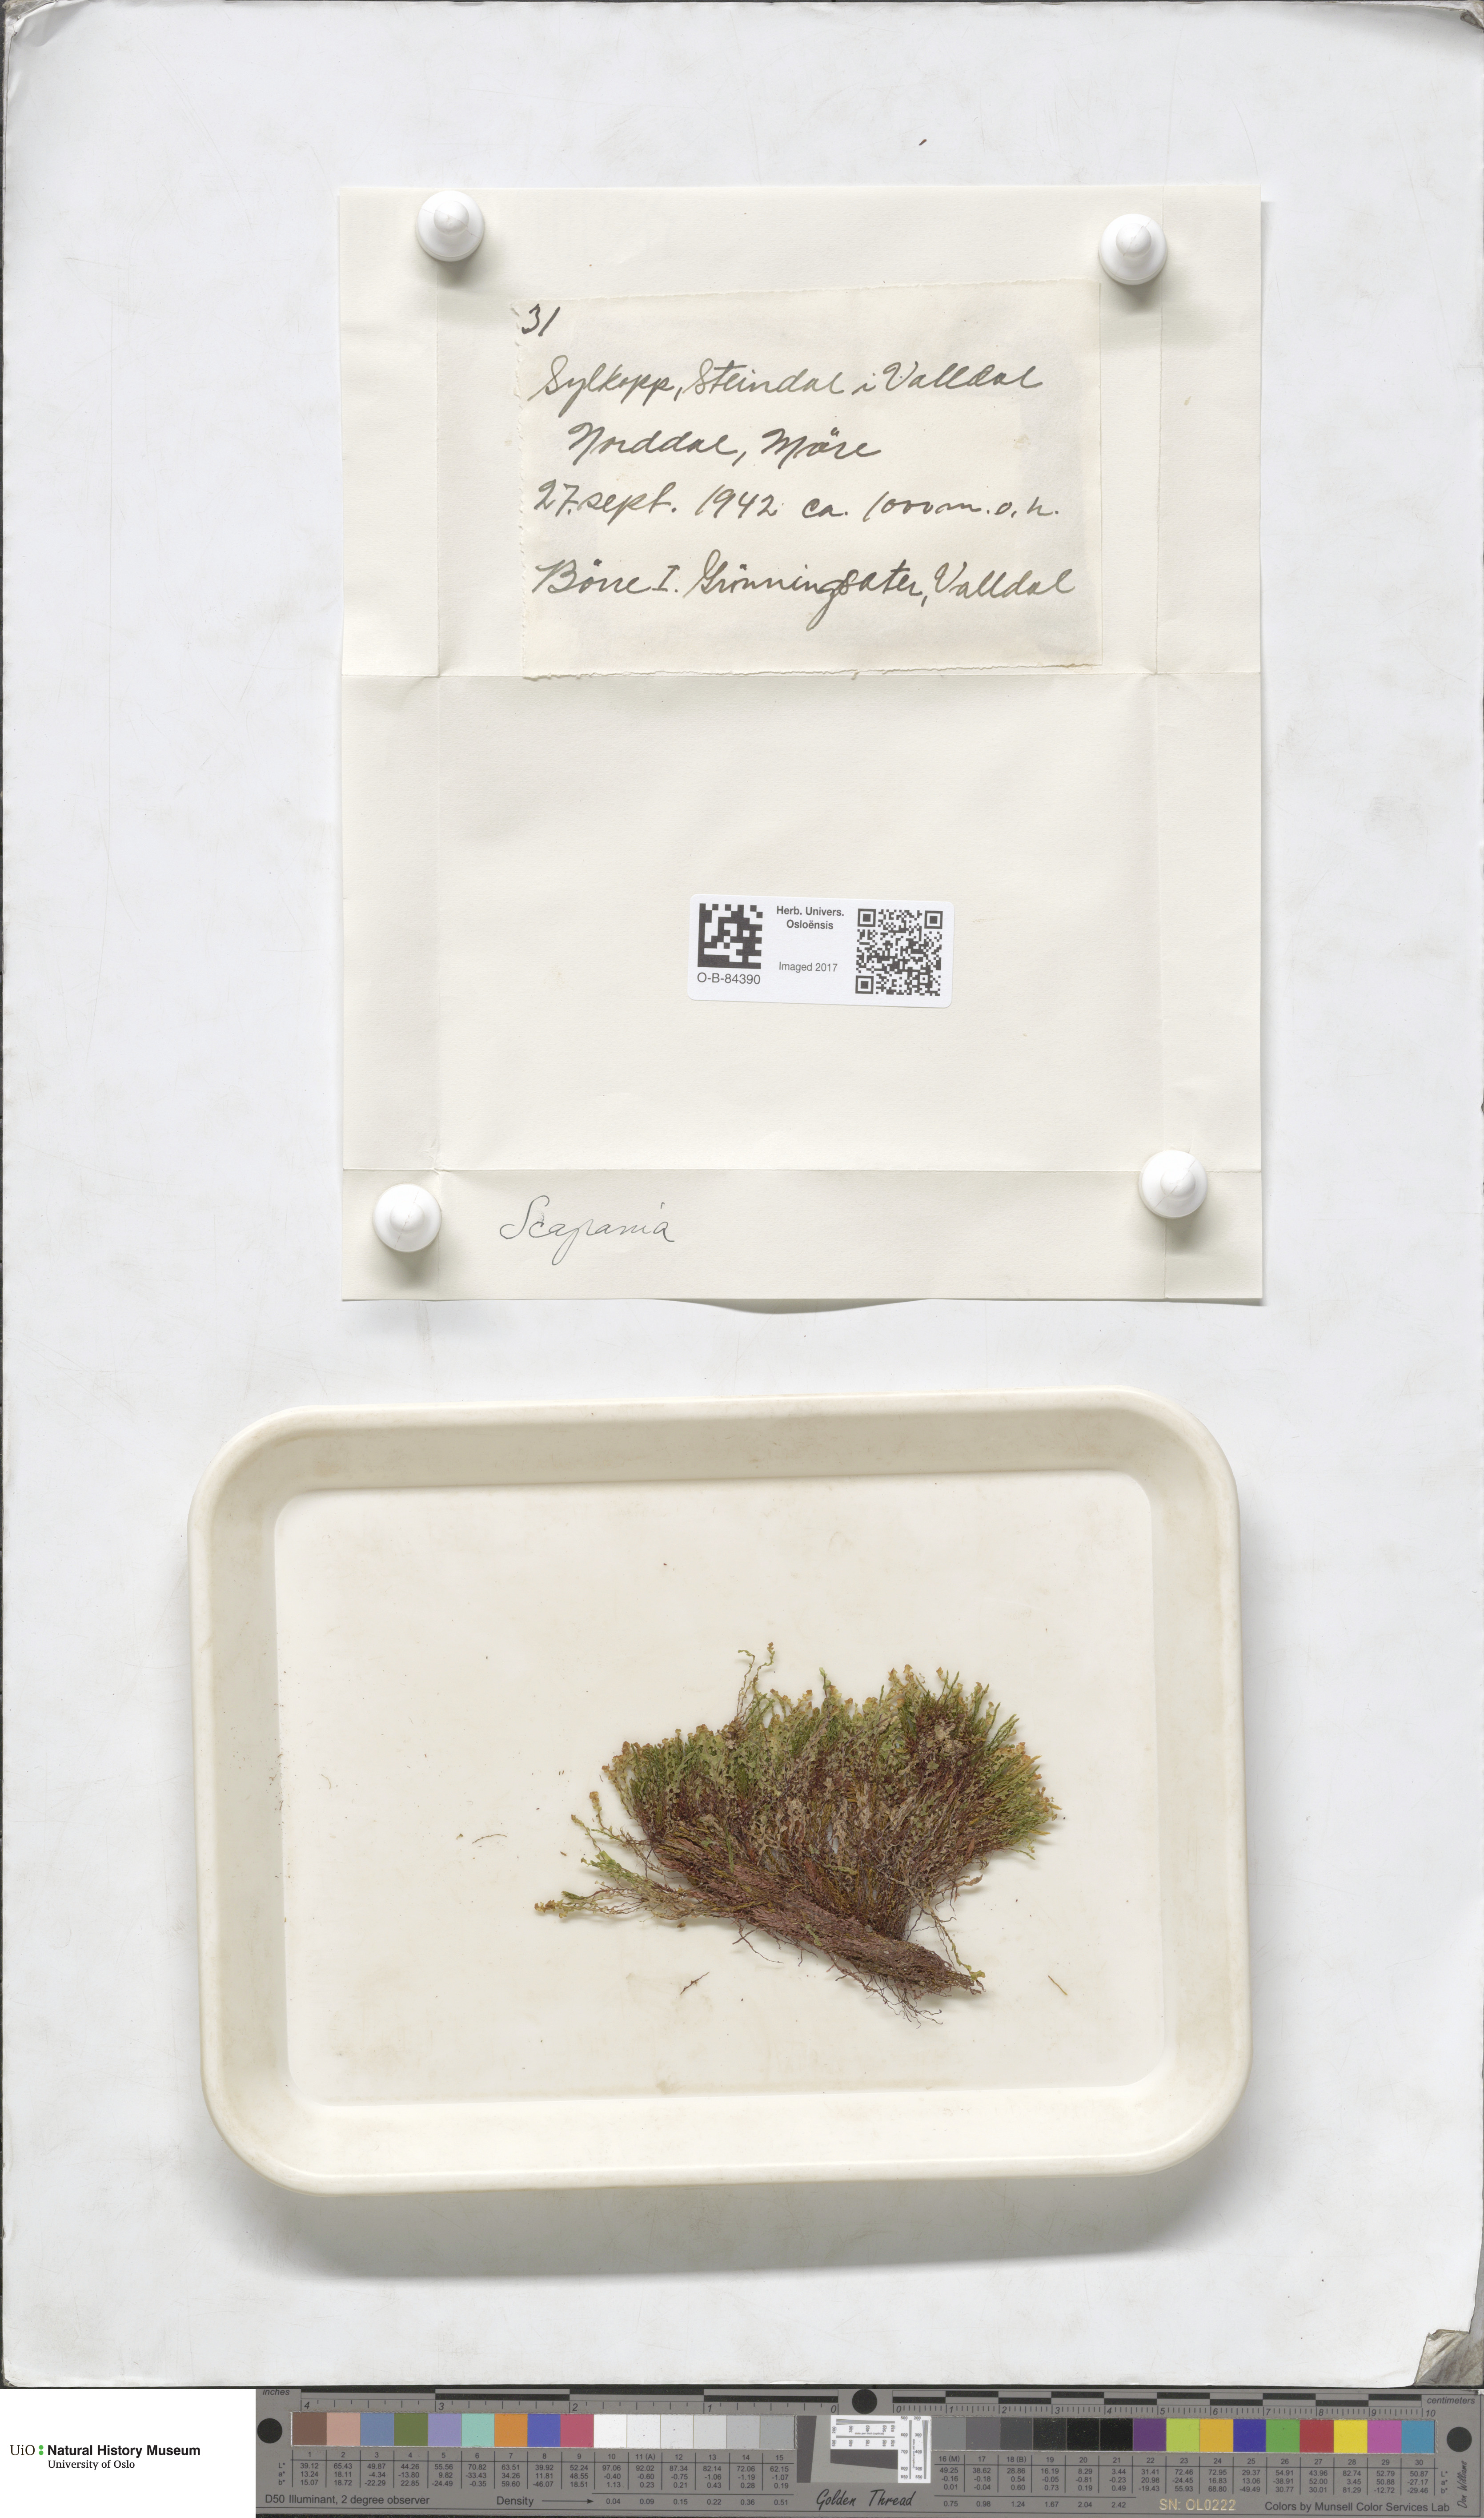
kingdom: Plantae
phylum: Marchantiophyta
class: Jungermanniopsida
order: Jungermanniales
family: Scapaniaceae
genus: Scapania
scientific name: Scapania
